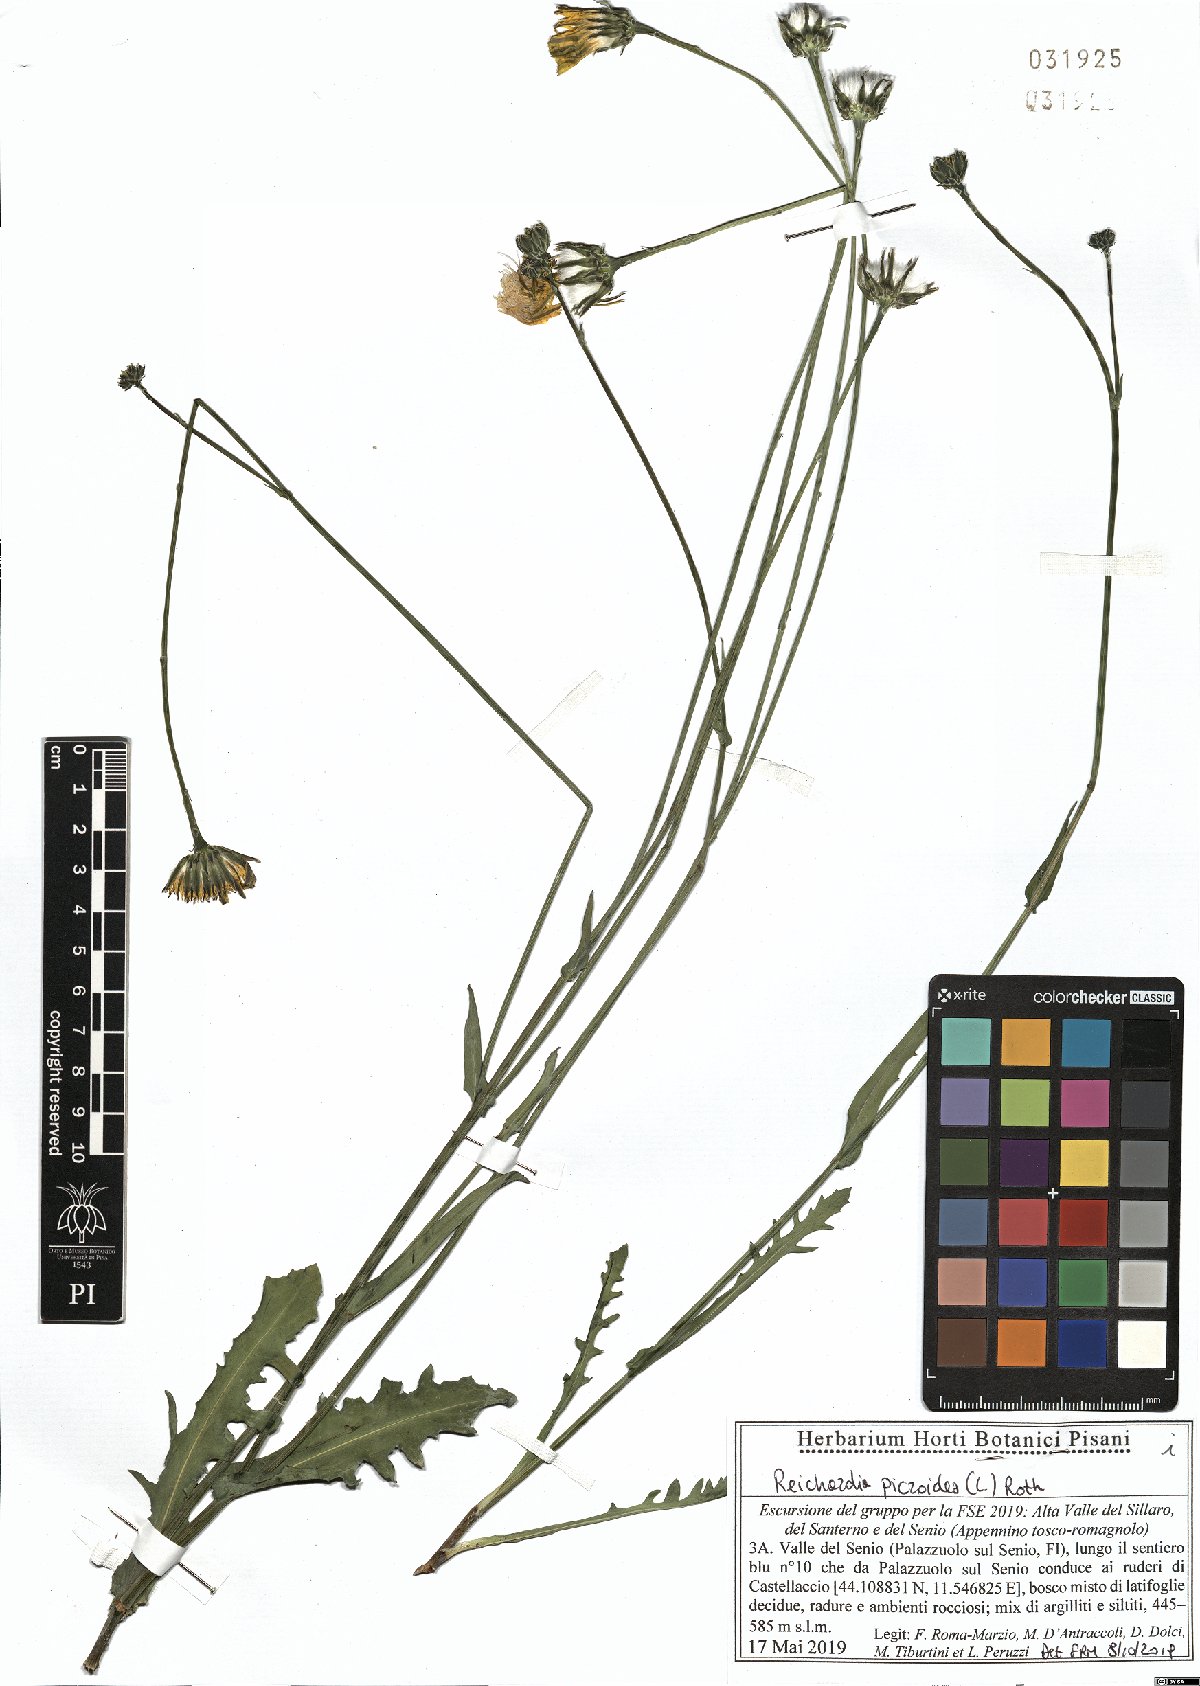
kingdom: Plantae
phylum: Tracheophyta
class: Magnoliopsida
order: Asterales
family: Asteraceae
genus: Reichardia
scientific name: Reichardia picroides
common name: Common brighteyes
